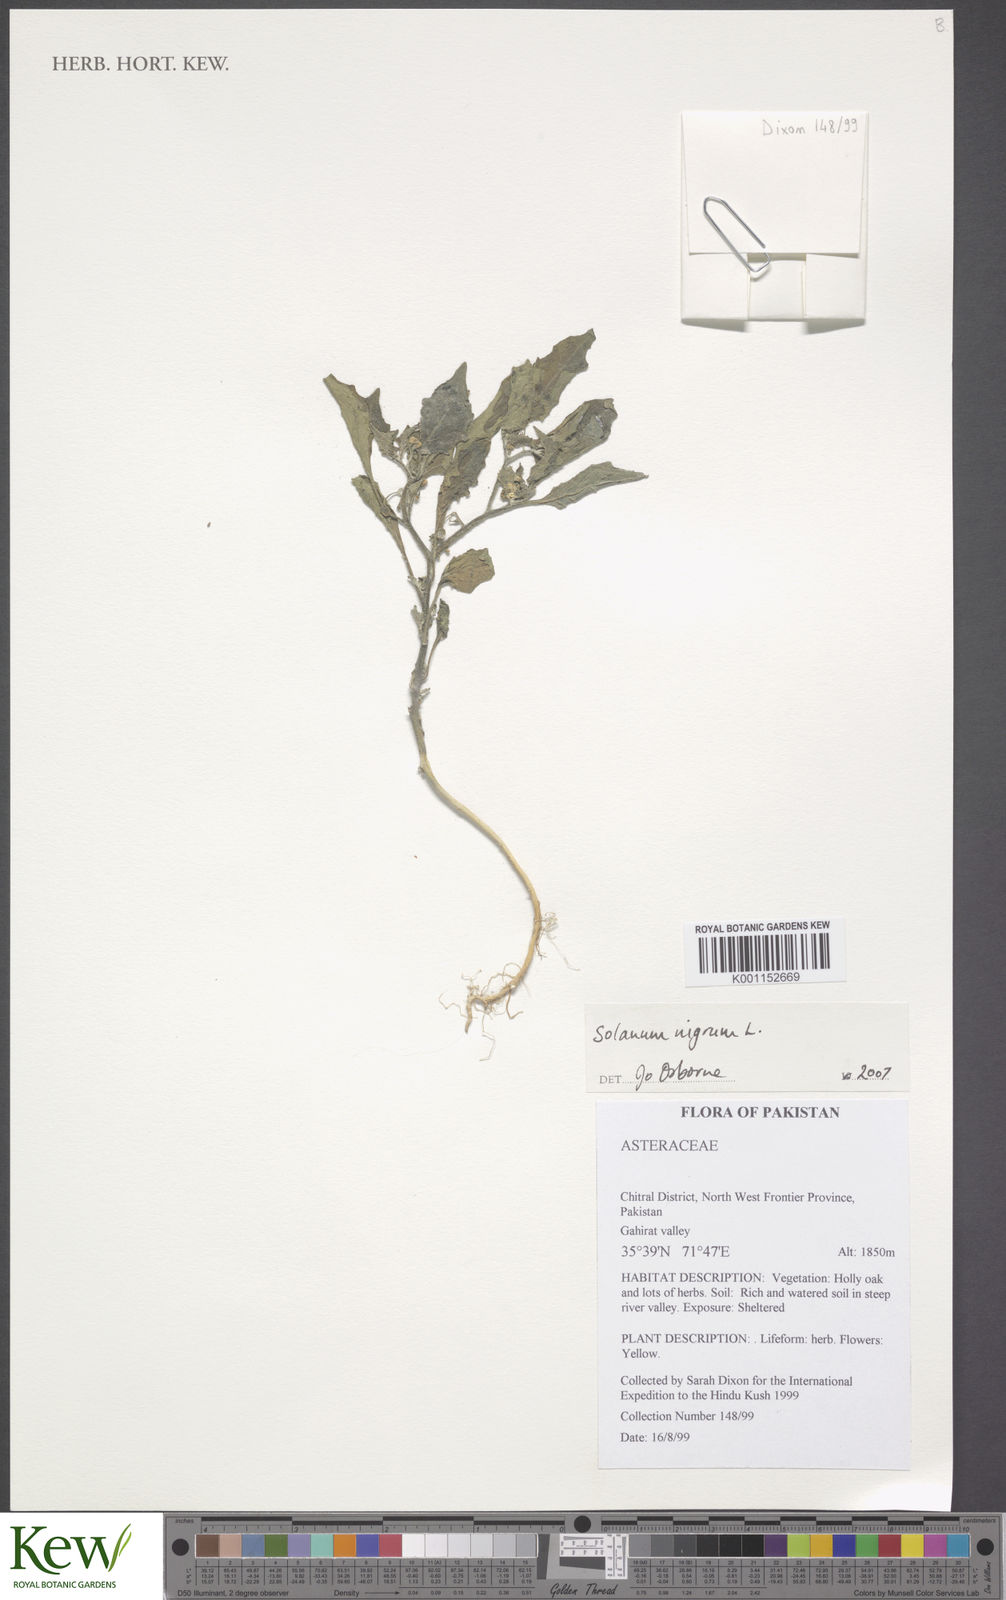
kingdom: Plantae
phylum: Tracheophyta
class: Magnoliopsida
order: Solanales
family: Solanaceae
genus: Solanum
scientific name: Solanum nigrum
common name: Black nightshade
